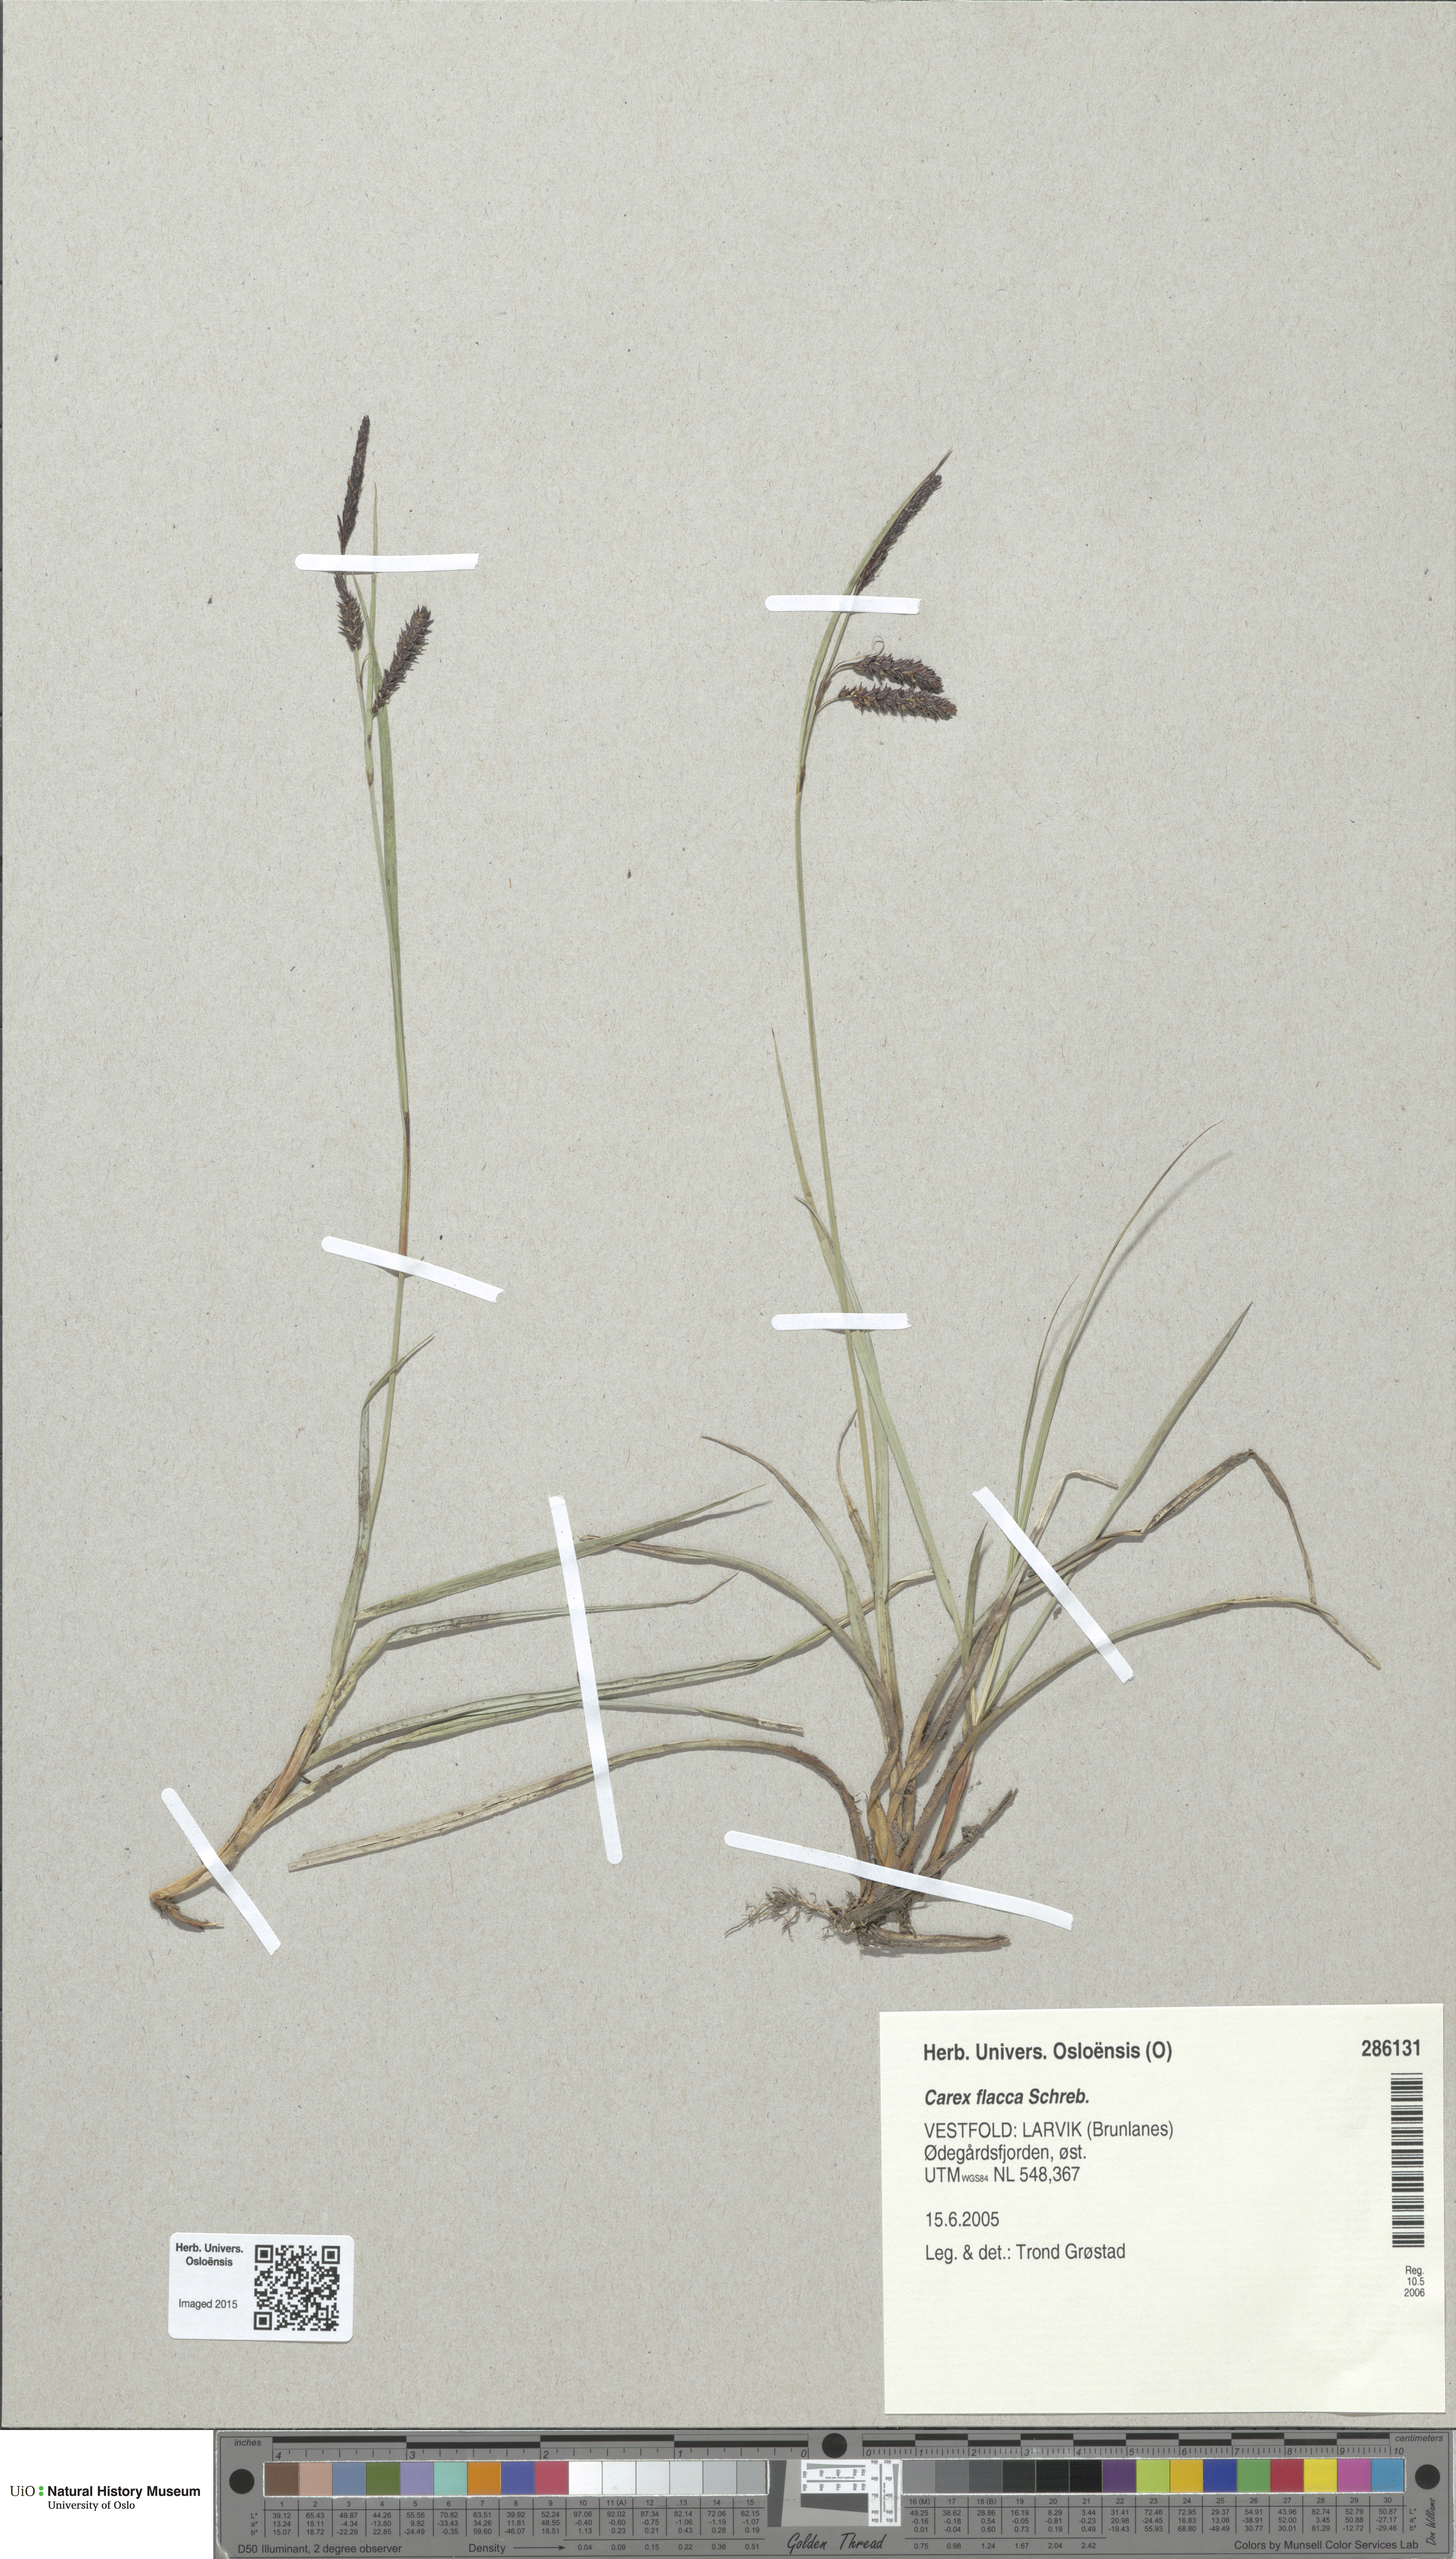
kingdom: Plantae
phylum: Tracheophyta
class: Liliopsida
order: Poales
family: Cyperaceae
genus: Carex
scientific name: Carex flacca
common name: Glaucous sedge
